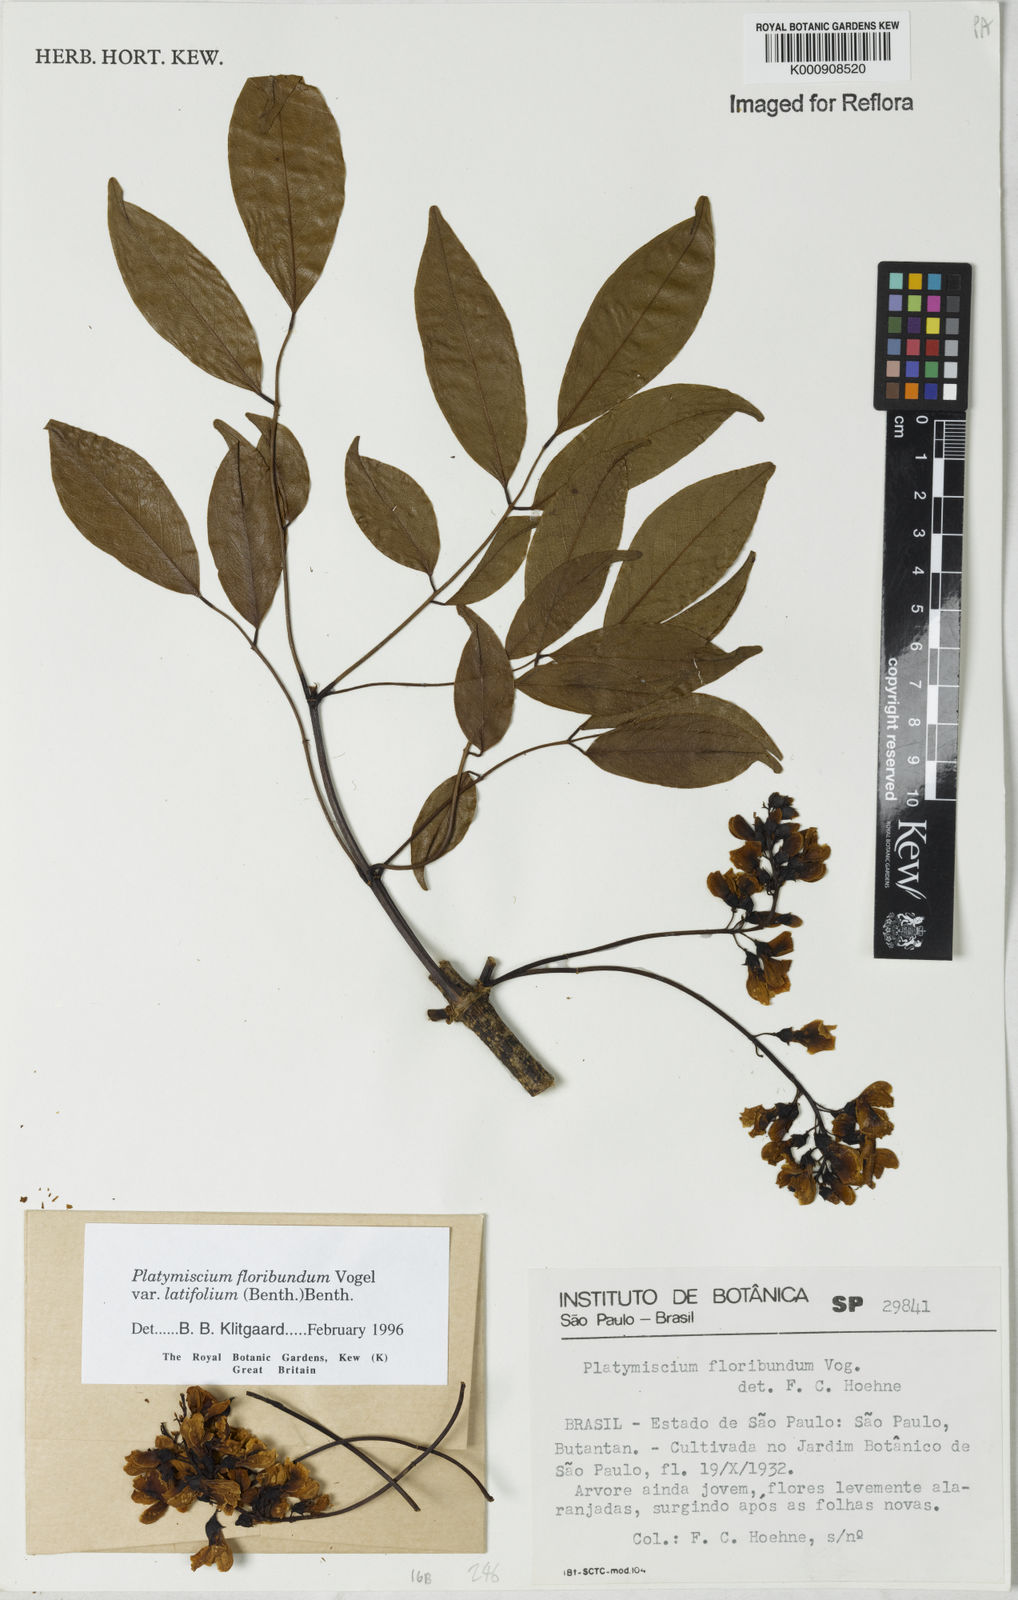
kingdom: Plantae
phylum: Tracheophyta
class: Magnoliopsida
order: Fabales
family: Fabaceae
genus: Platymiscium
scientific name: Platymiscium floribundum
